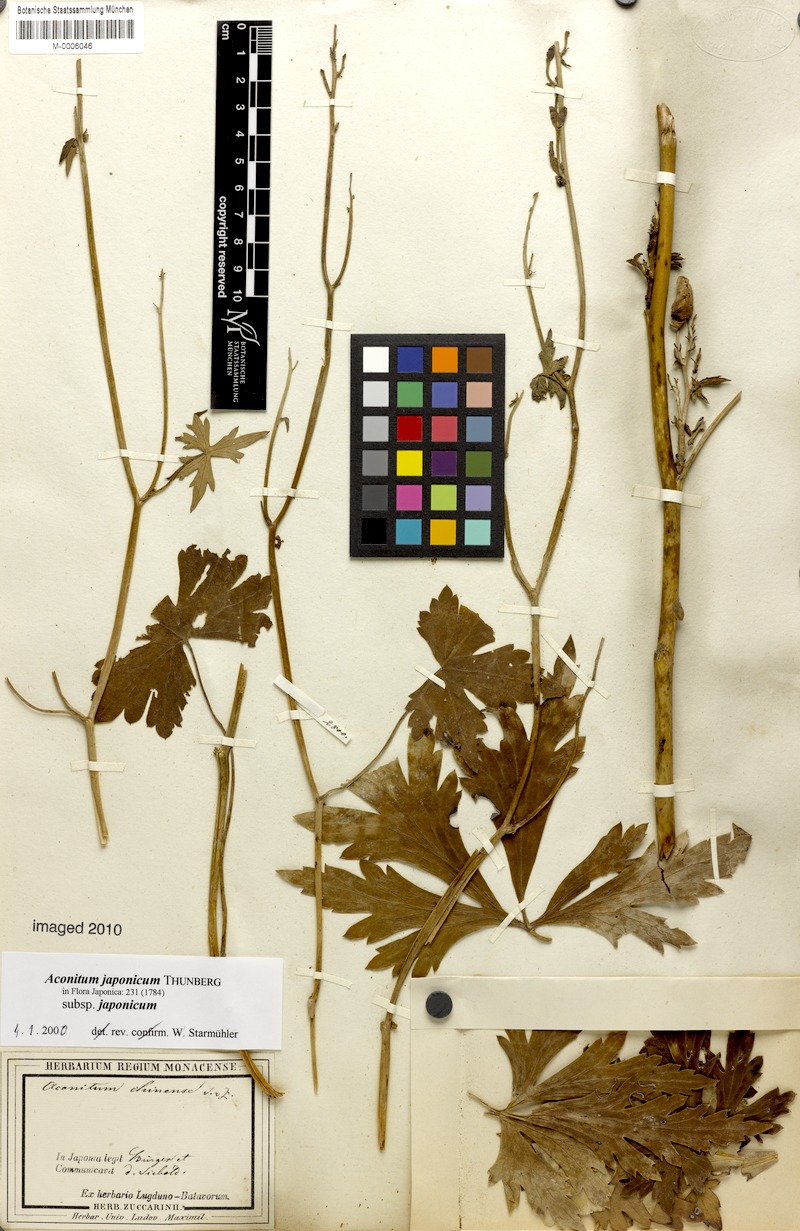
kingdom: Plantae
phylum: Tracheophyta
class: Magnoliopsida
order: Ranunculales
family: Ranunculaceae
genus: Aconitum
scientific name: Aconitum fischeri
